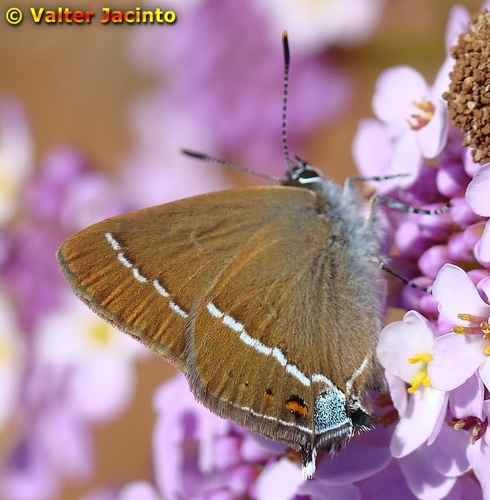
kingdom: Animalia
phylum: Arthropoda
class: Insecta
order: Lepidoptera
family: Lycaenidae
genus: Tuttiola
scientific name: Tuttiola spini
